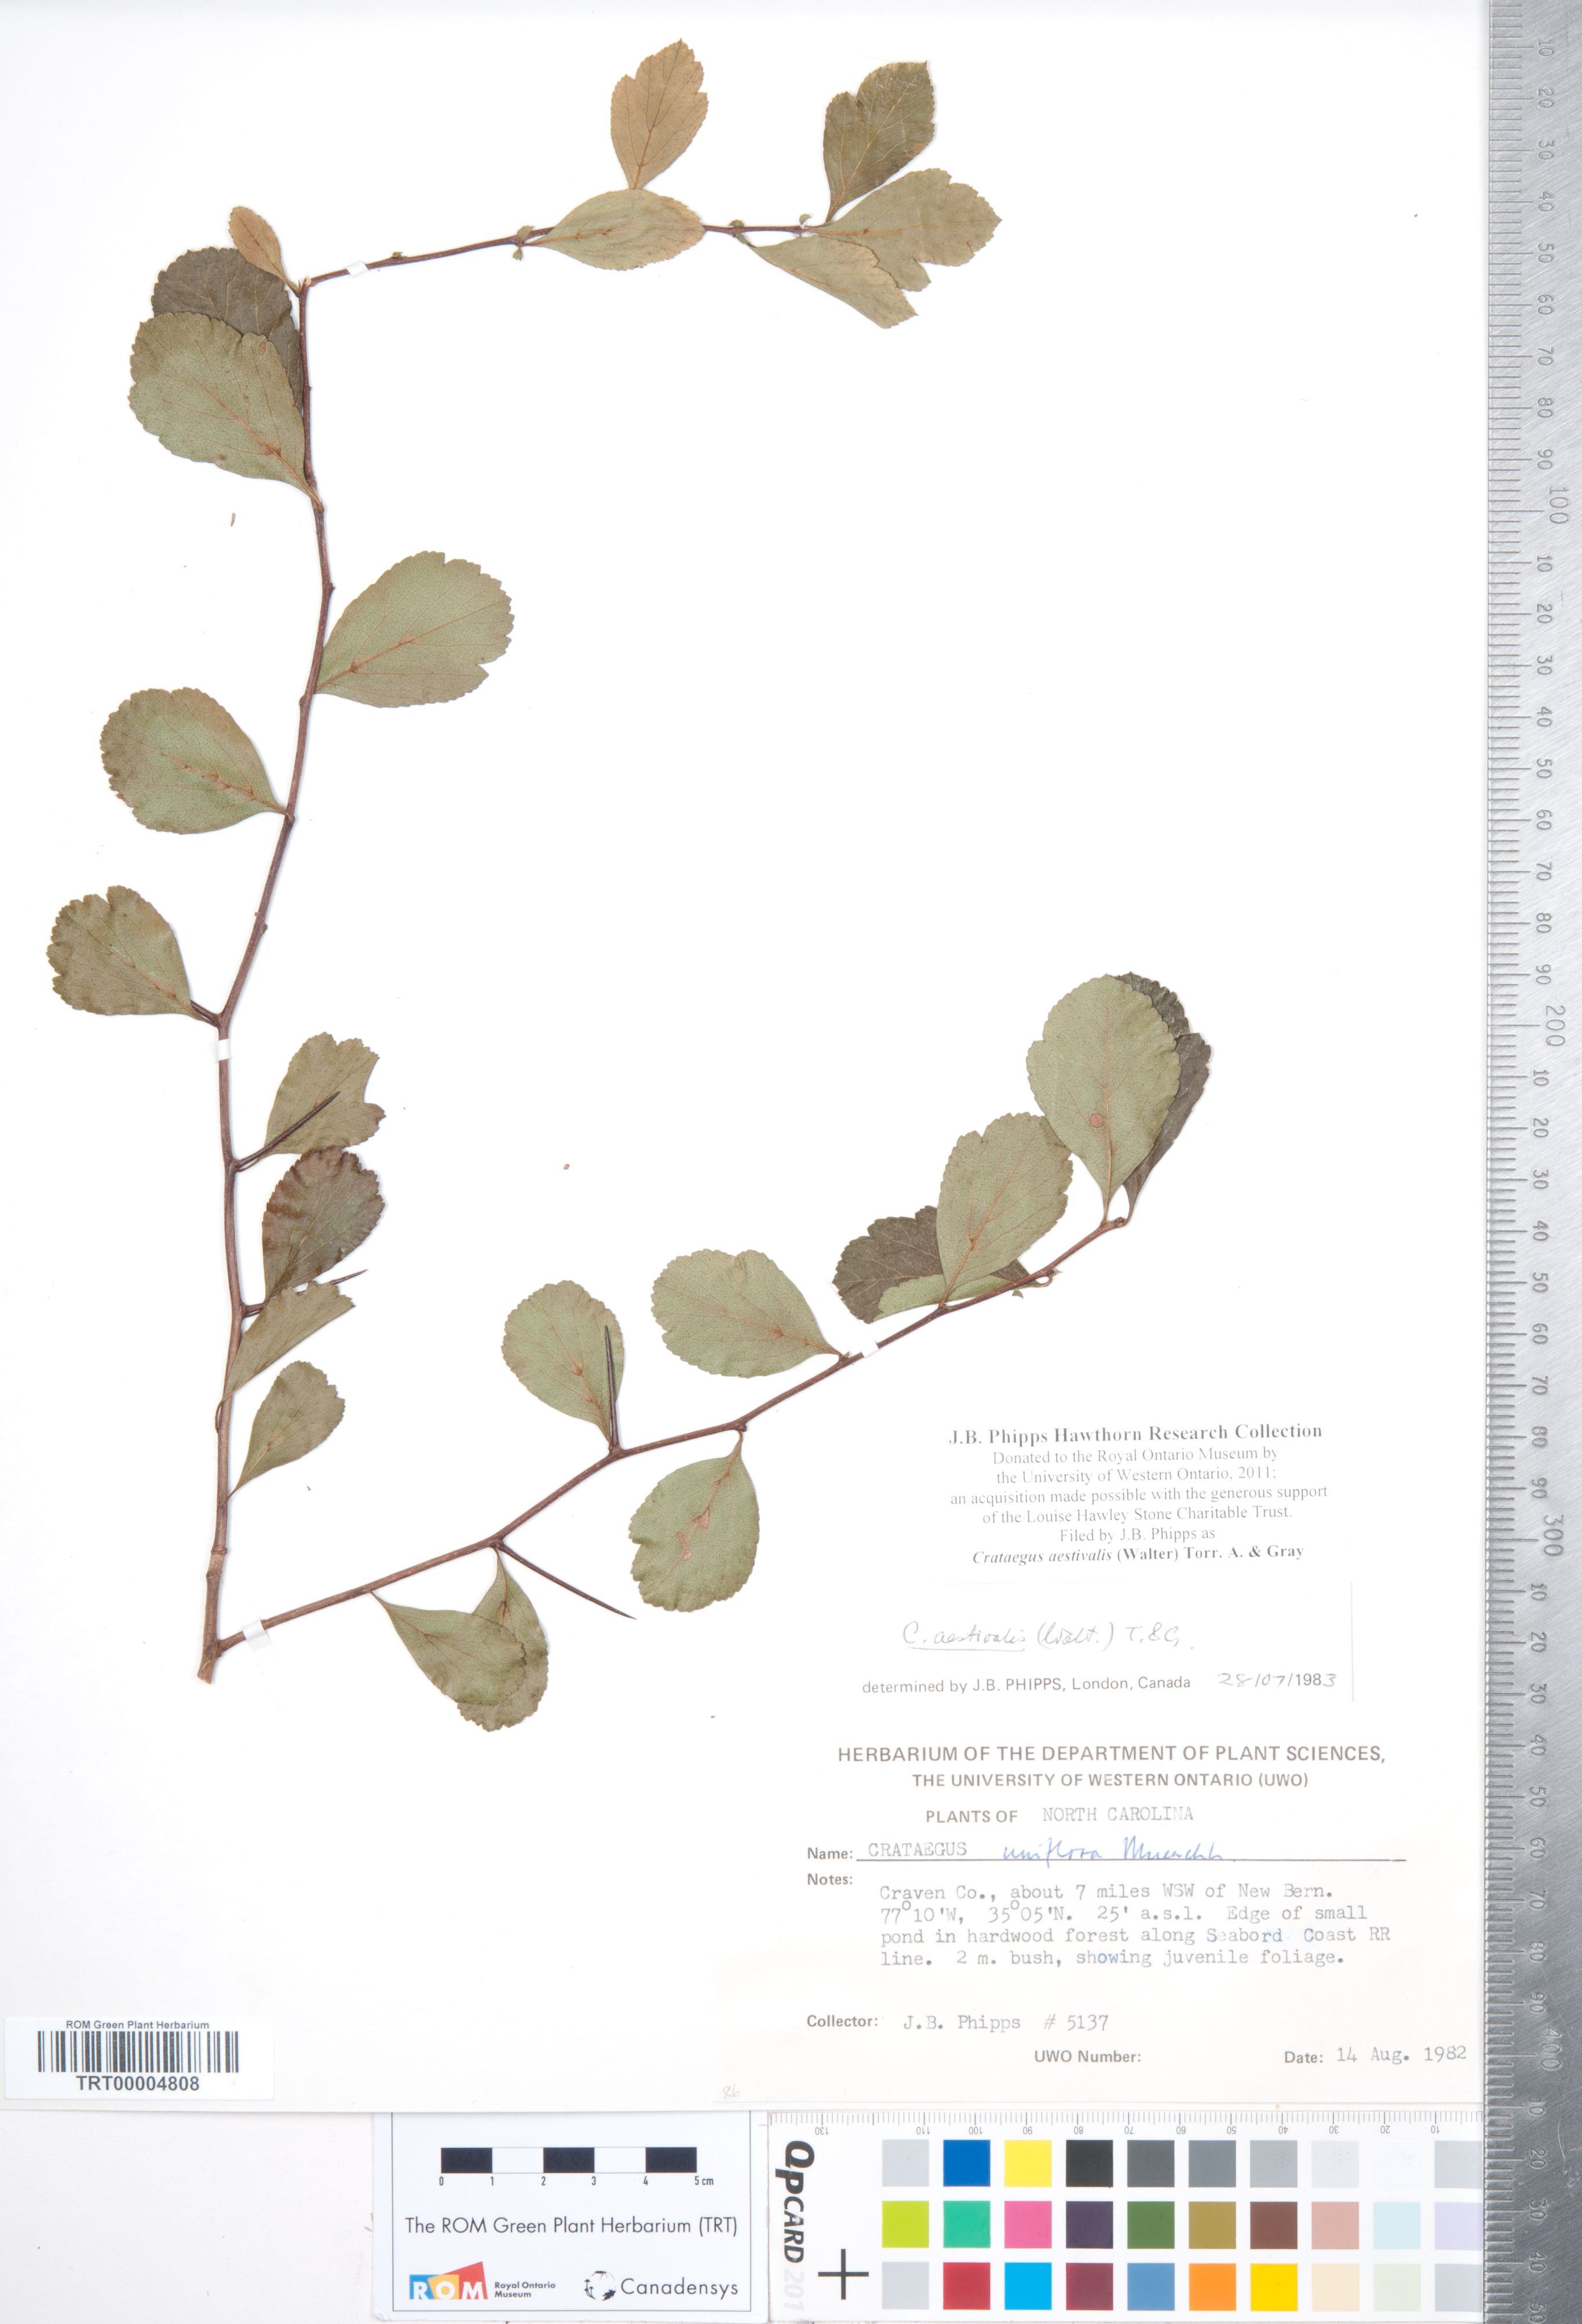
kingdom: Plantae
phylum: Tracheophyta
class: Magnoliopsida
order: Rosales
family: Rosaceae
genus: Crataegus
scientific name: Crataegus aestivalis
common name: Mayhaw
